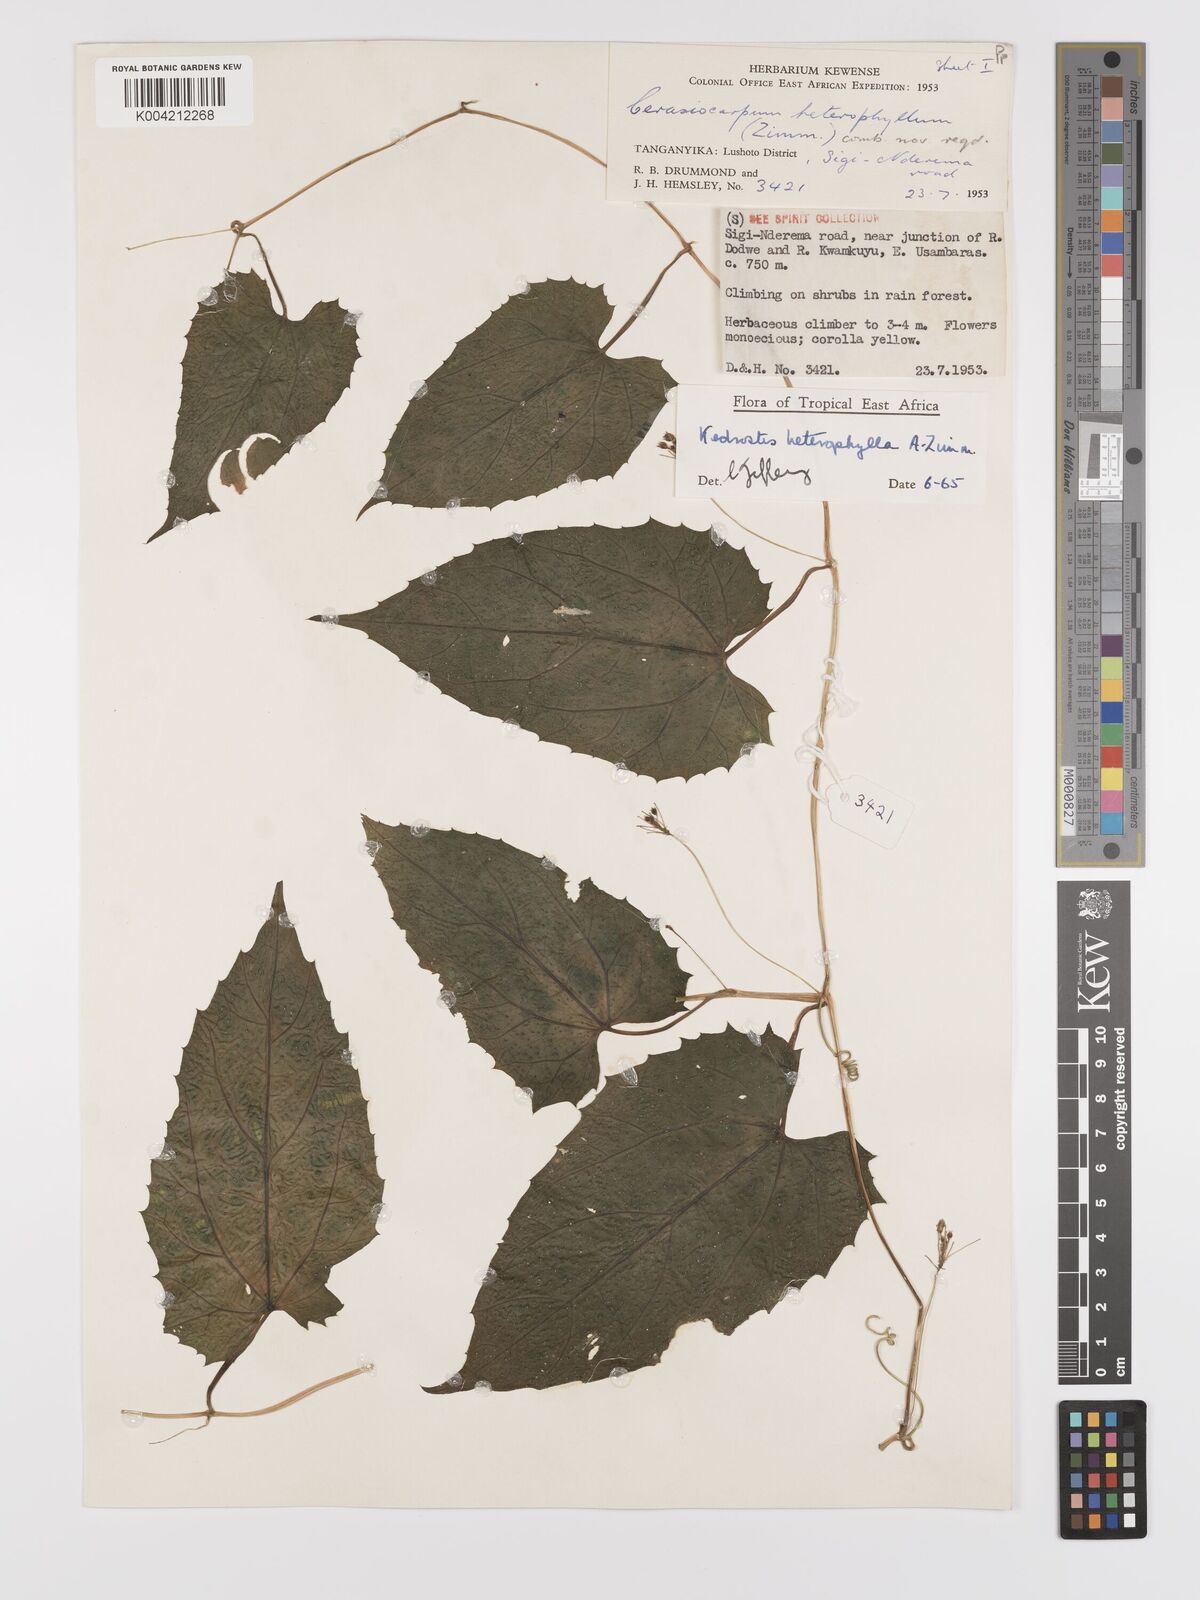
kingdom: Plantae
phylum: Tracheophyta
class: Magnoliopsida
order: Cucurbitales
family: Cucurbitaceae
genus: Kedrostis
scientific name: Kedrostis heterophylla
